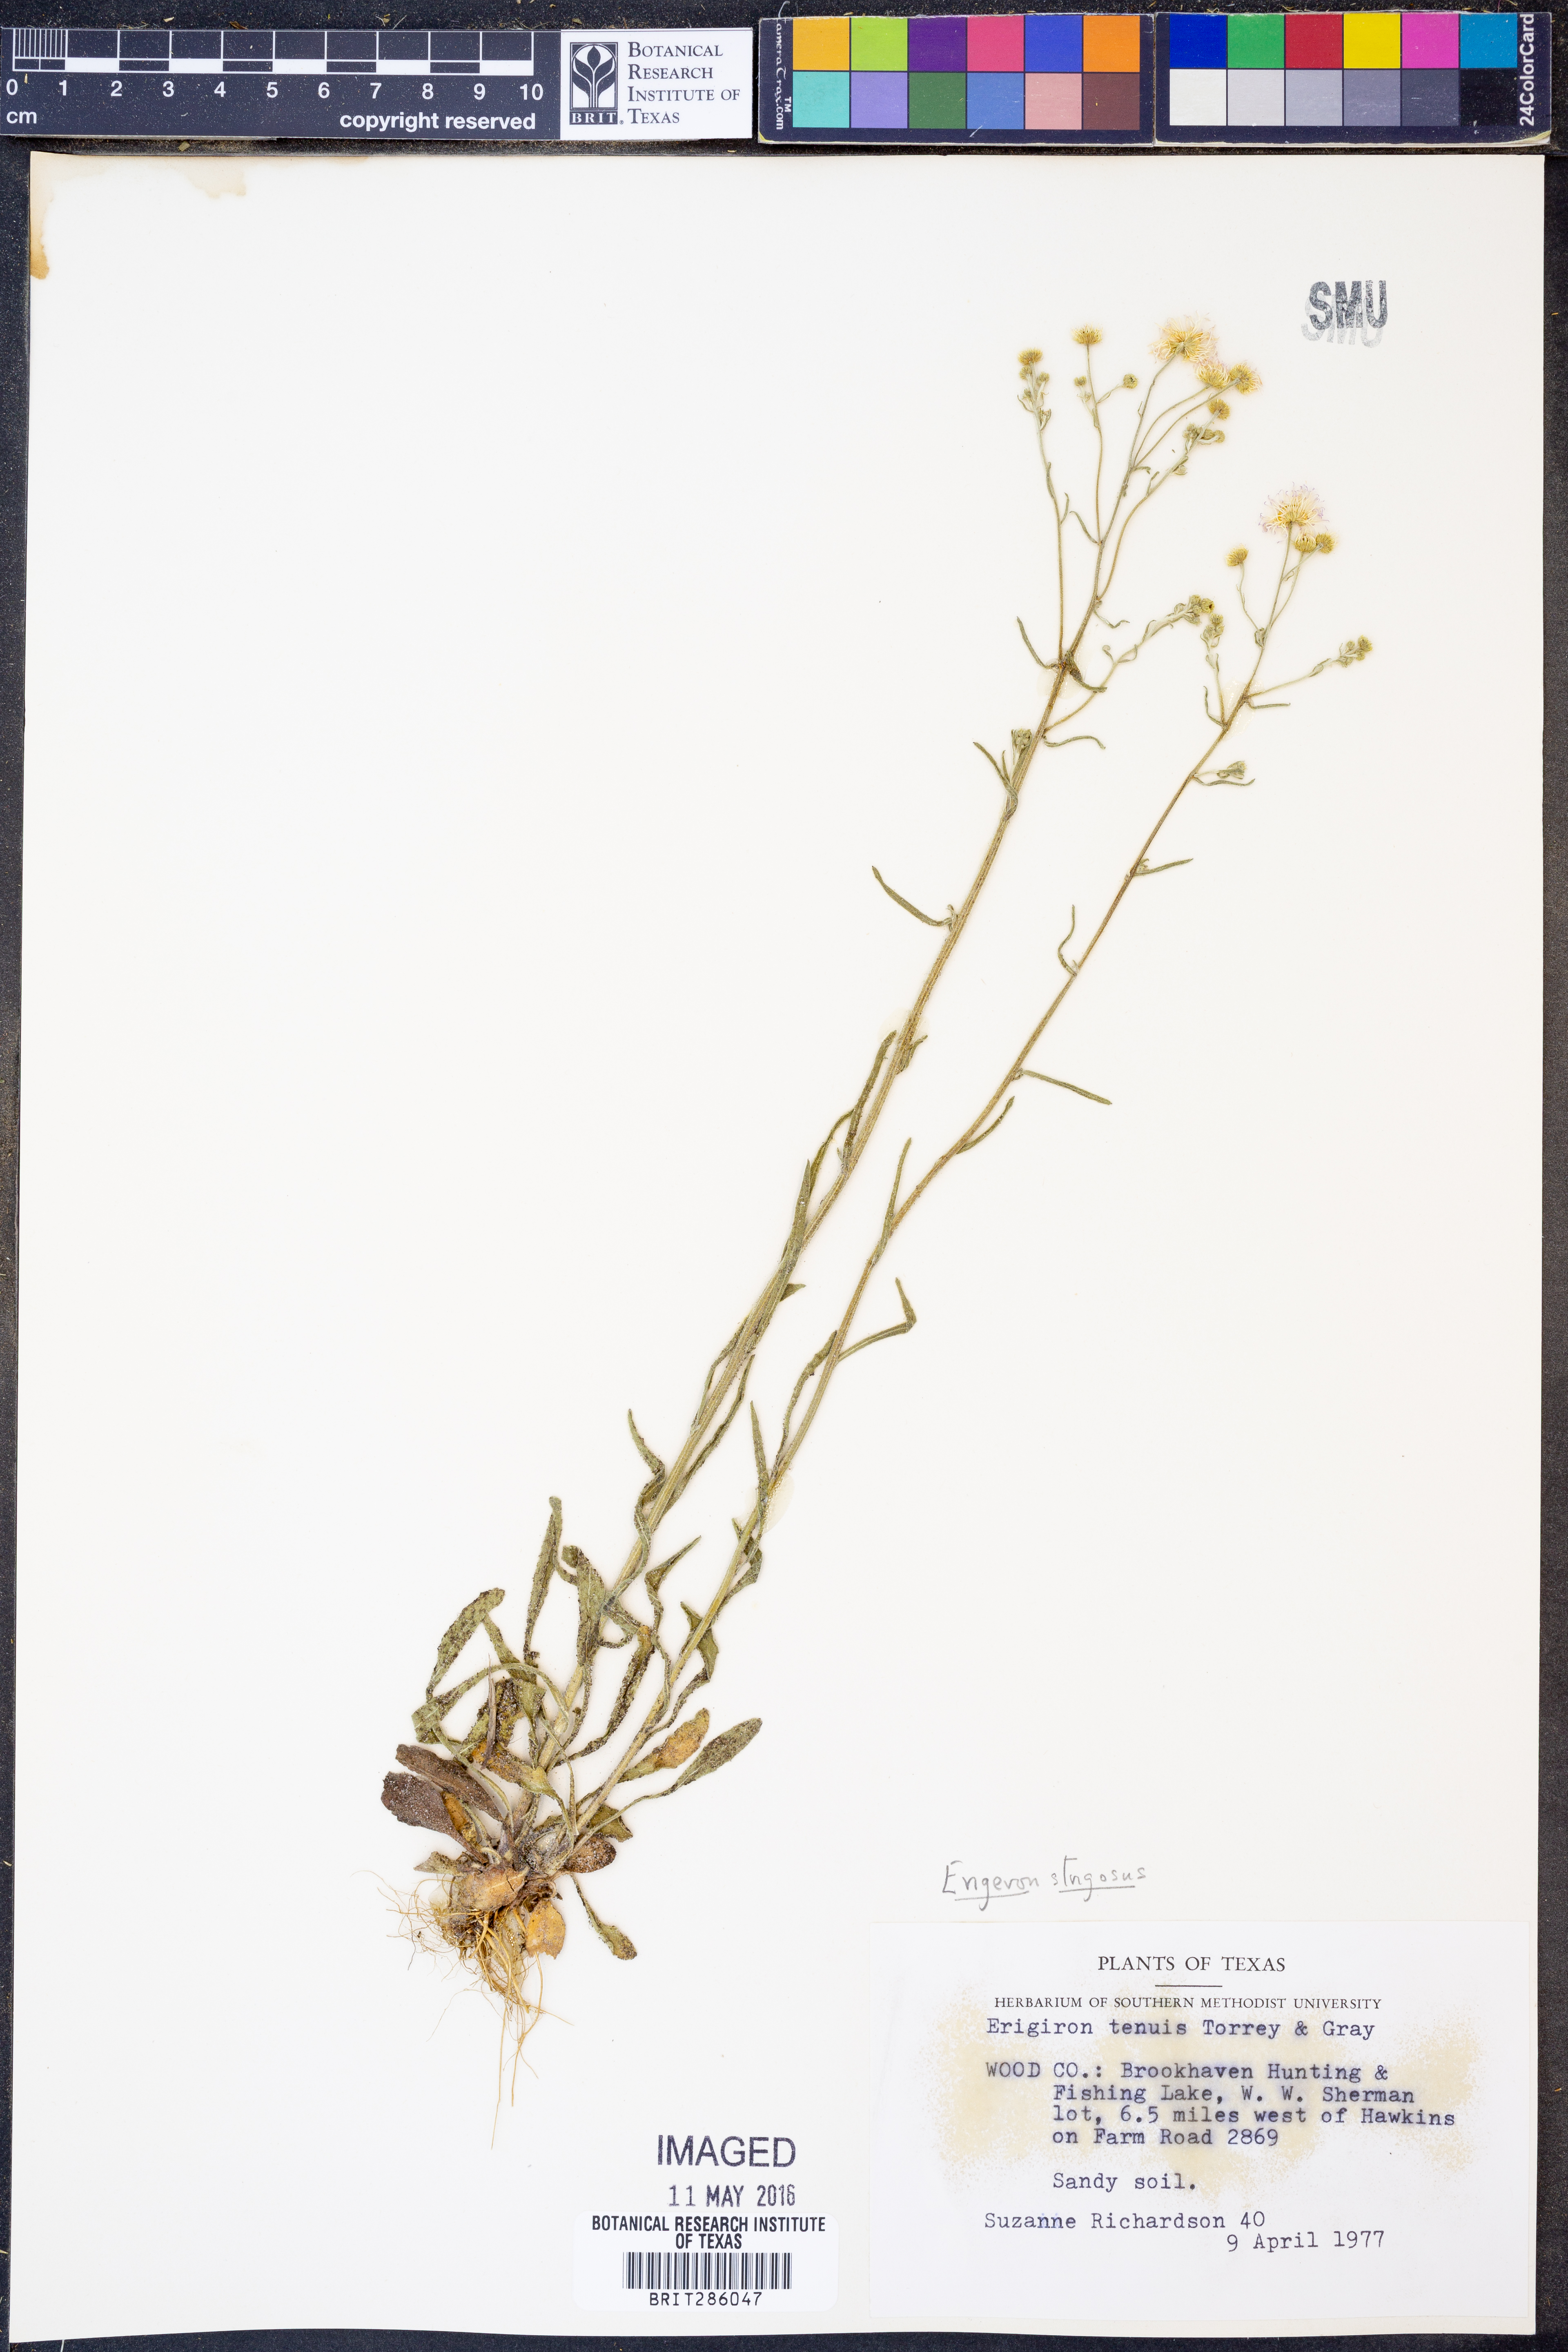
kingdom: Plantae
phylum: Tracheophyta
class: Magnoliopsida
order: Asterales
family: Asteraceae
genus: Erigeron
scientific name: Erigeron strigosus
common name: Common eastern fleabane
